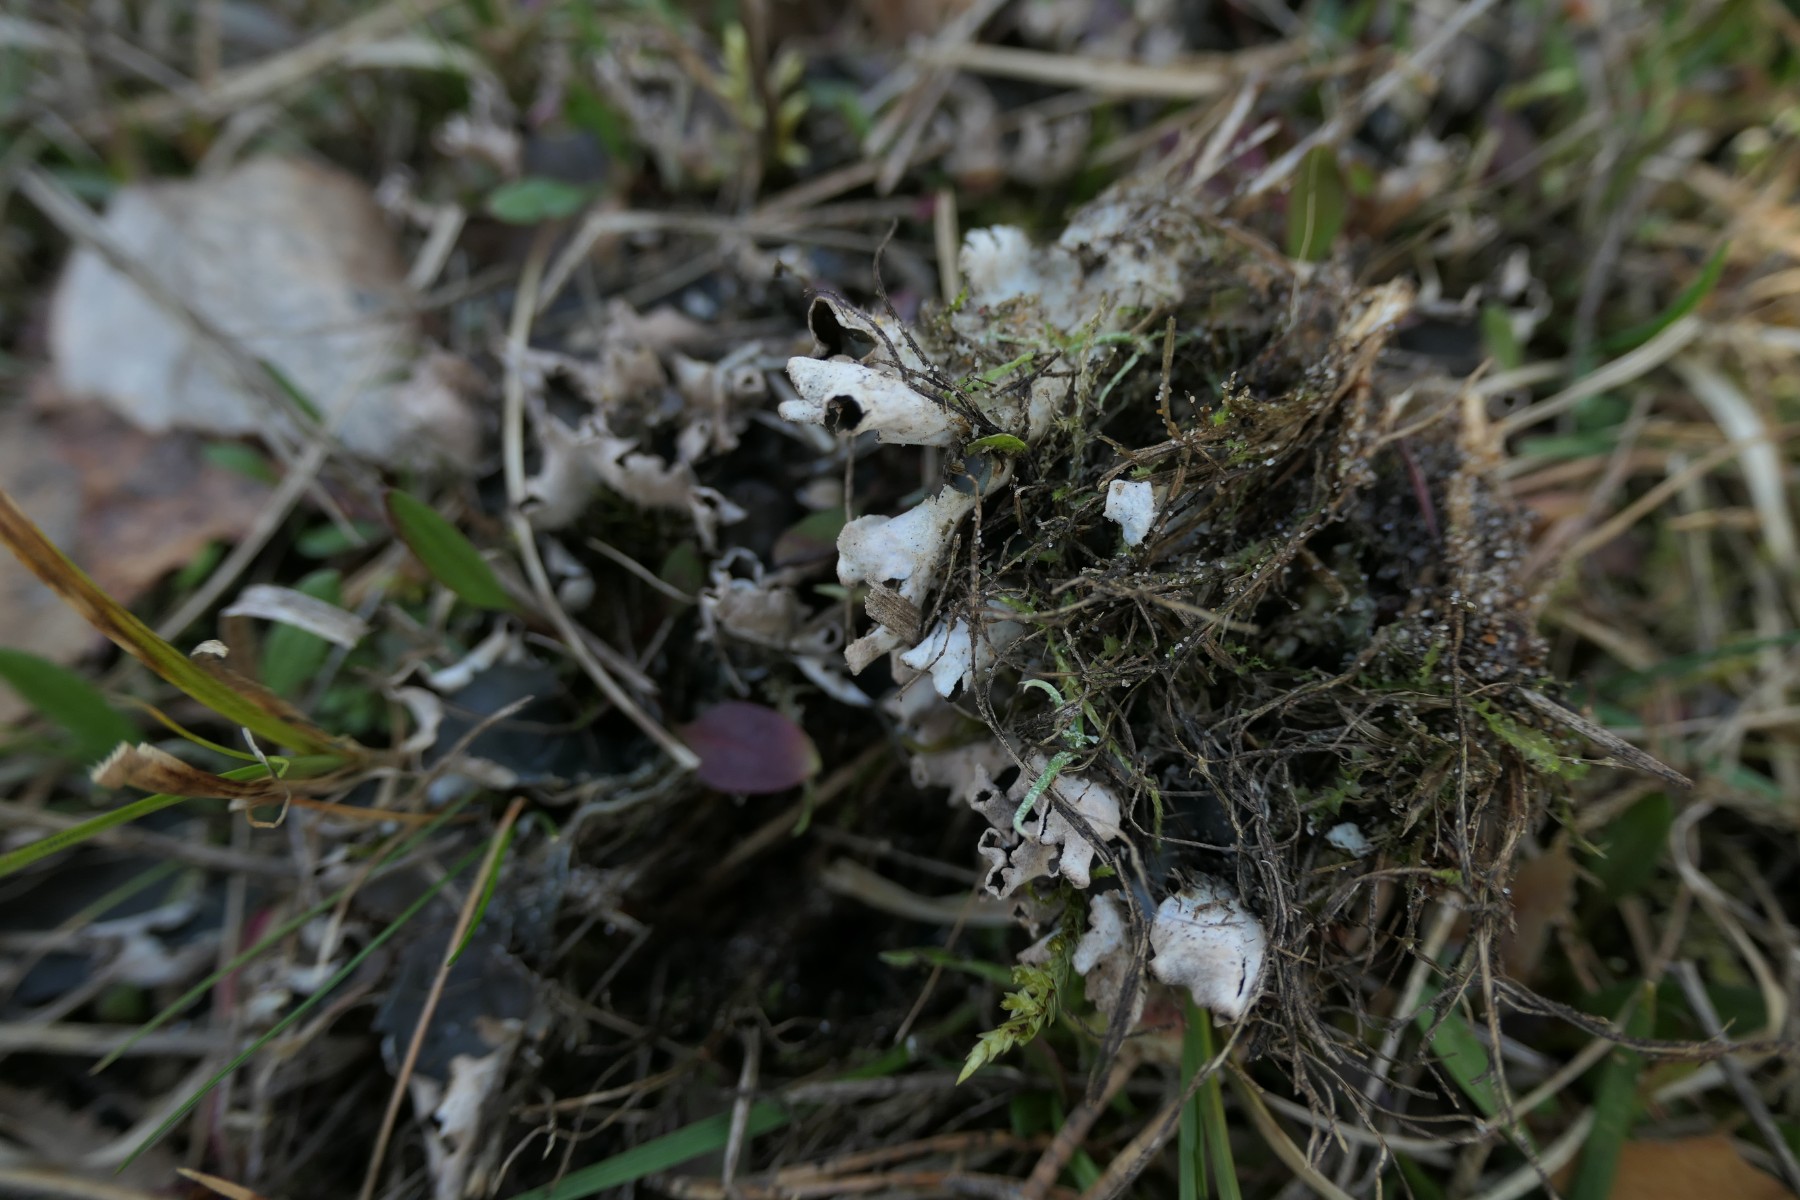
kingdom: Fungi
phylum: Ascomycota
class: Lecanoromycetes
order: Peltigerales
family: Peltigeraceae
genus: Peltigera
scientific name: Peltigera hymenina
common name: hinde-skjoldlav
